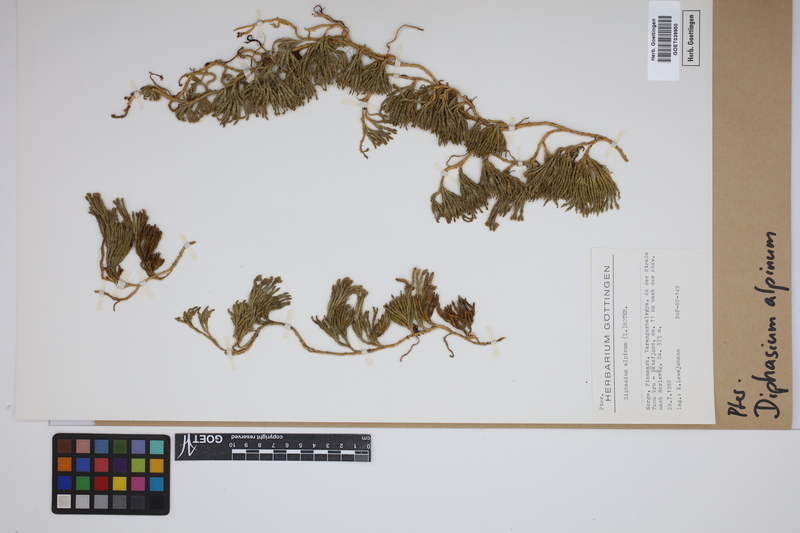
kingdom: Plantae
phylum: Tracheophyta
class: Lycopodiopsida
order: Lycopodiales
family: Lycopodiaceae
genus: Diphasiastrum
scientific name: Diphasiastrum alpinum
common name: Alpine clubmoss
